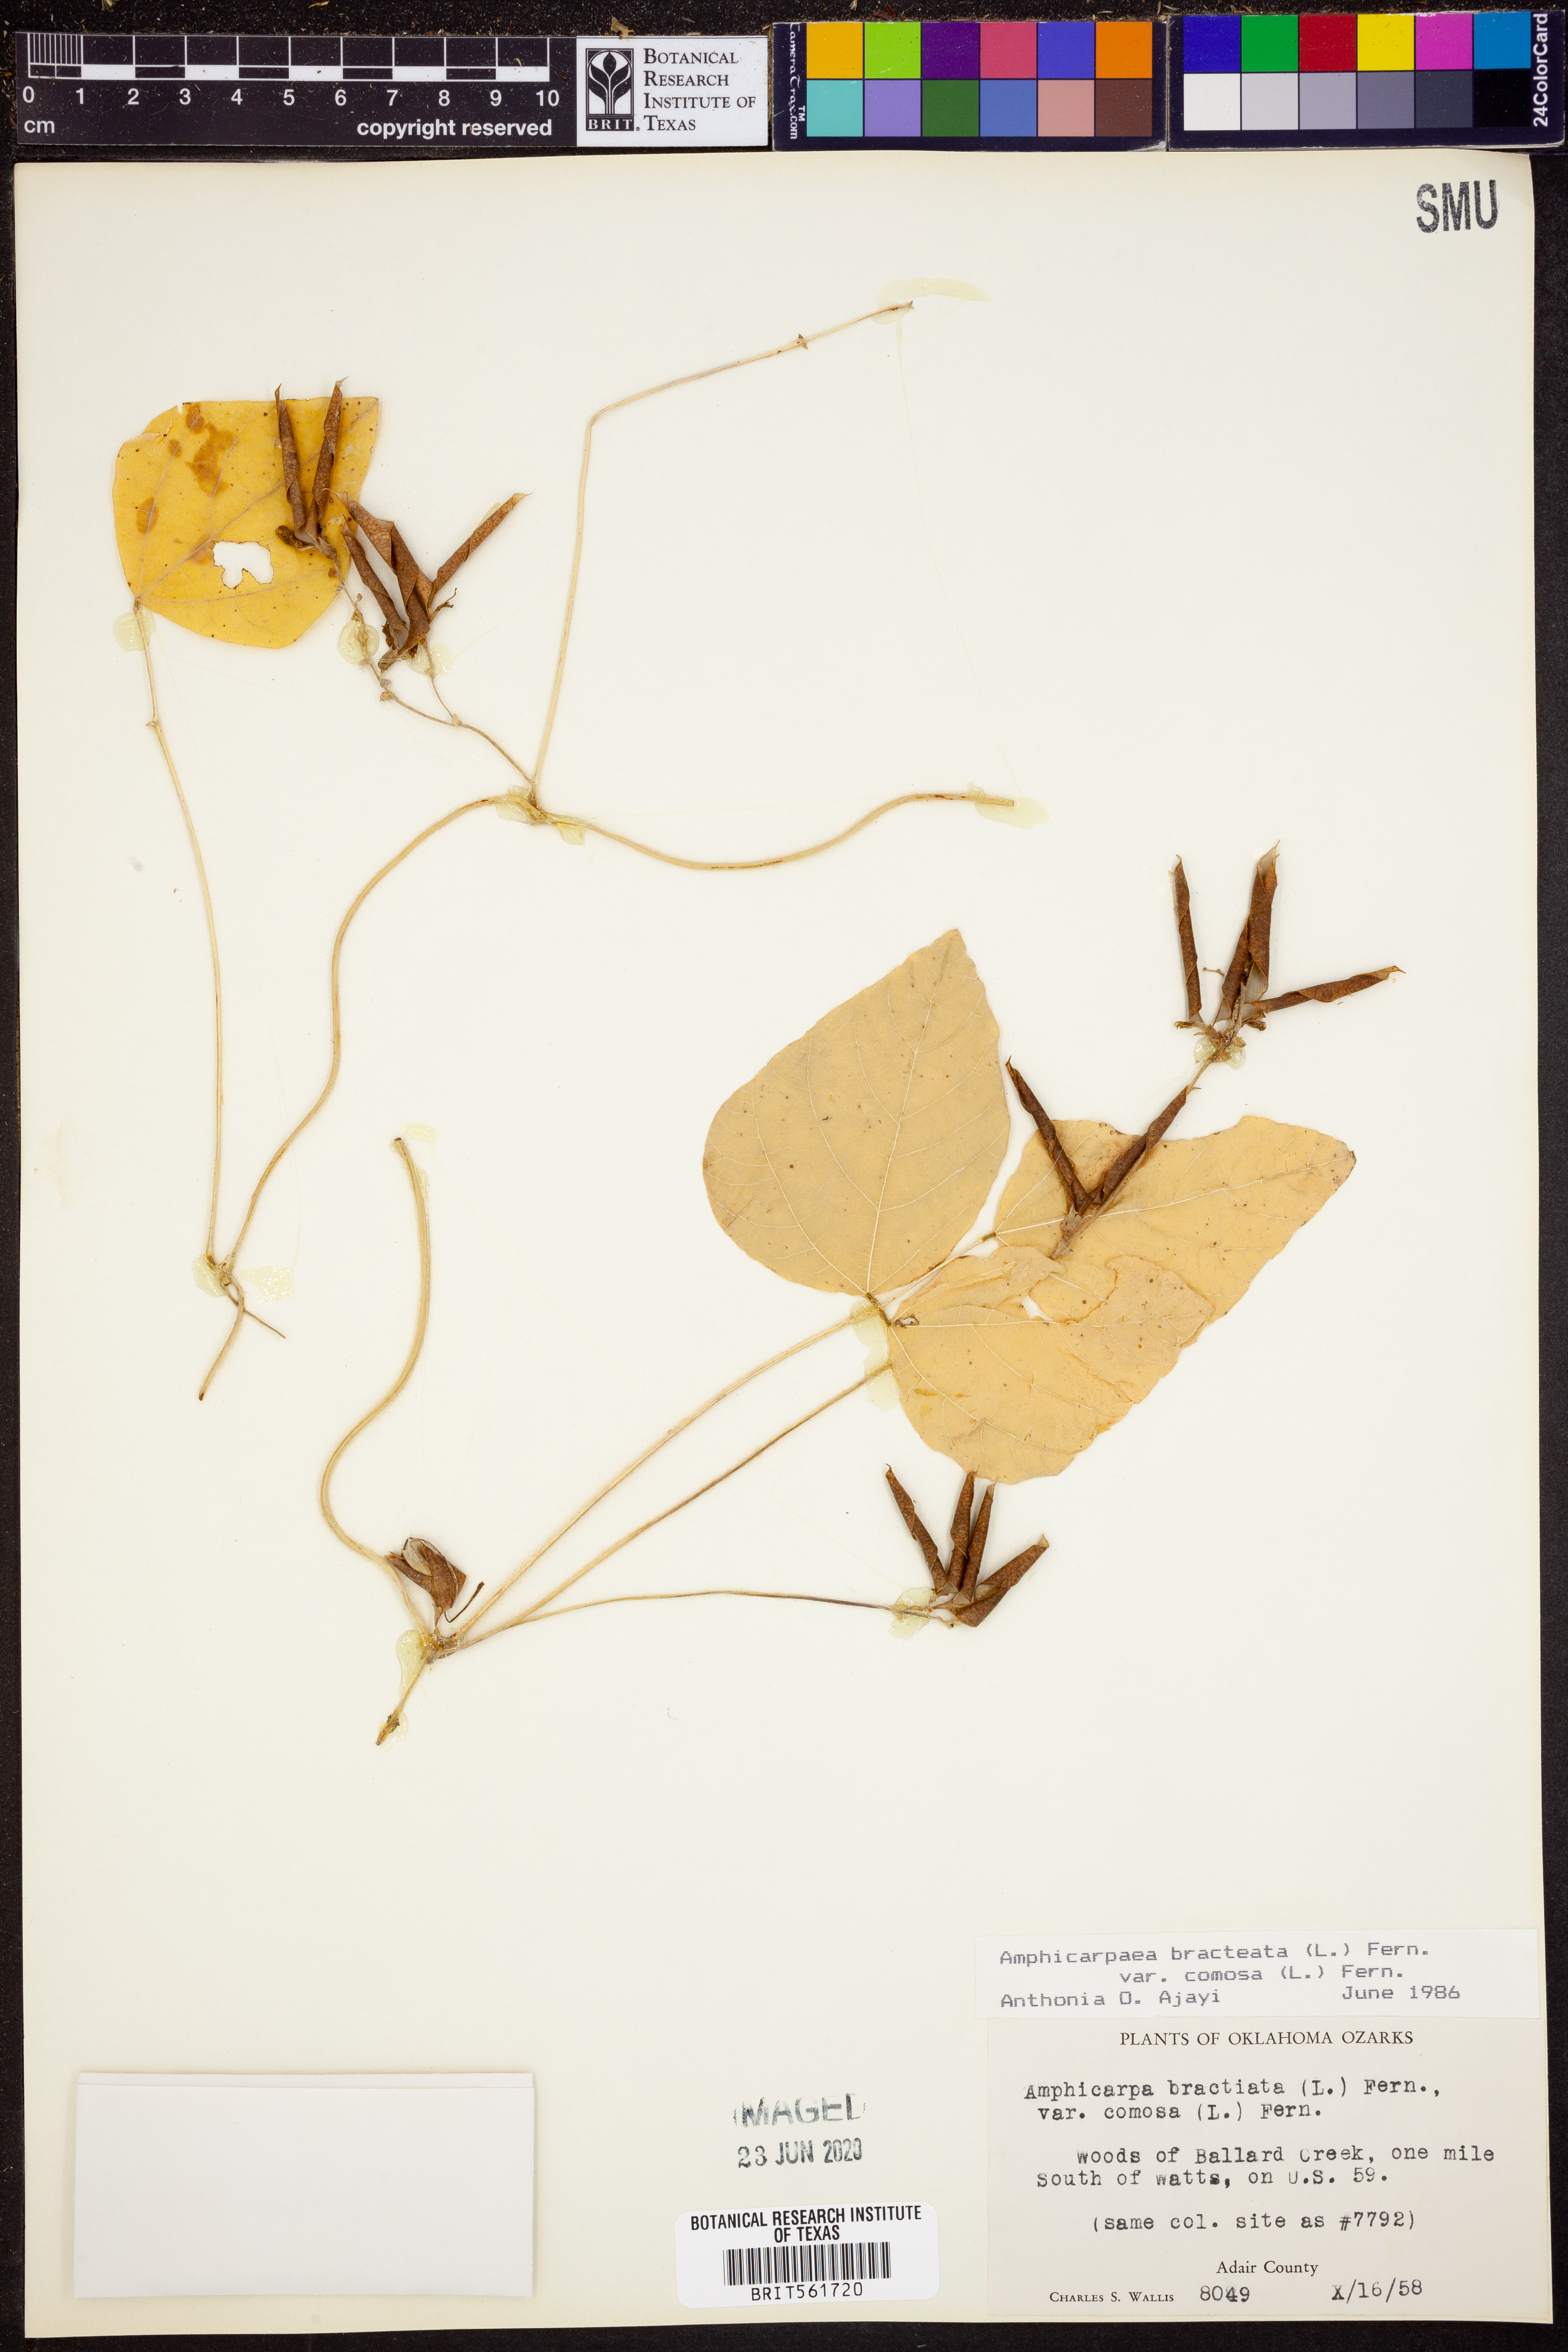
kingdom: Plantae
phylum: Tracheophyta
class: Magnoliopsida
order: Fabales
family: Fabaceae
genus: Amphicarpaea
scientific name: Amphicarpaea bracteata
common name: American hog peanut
